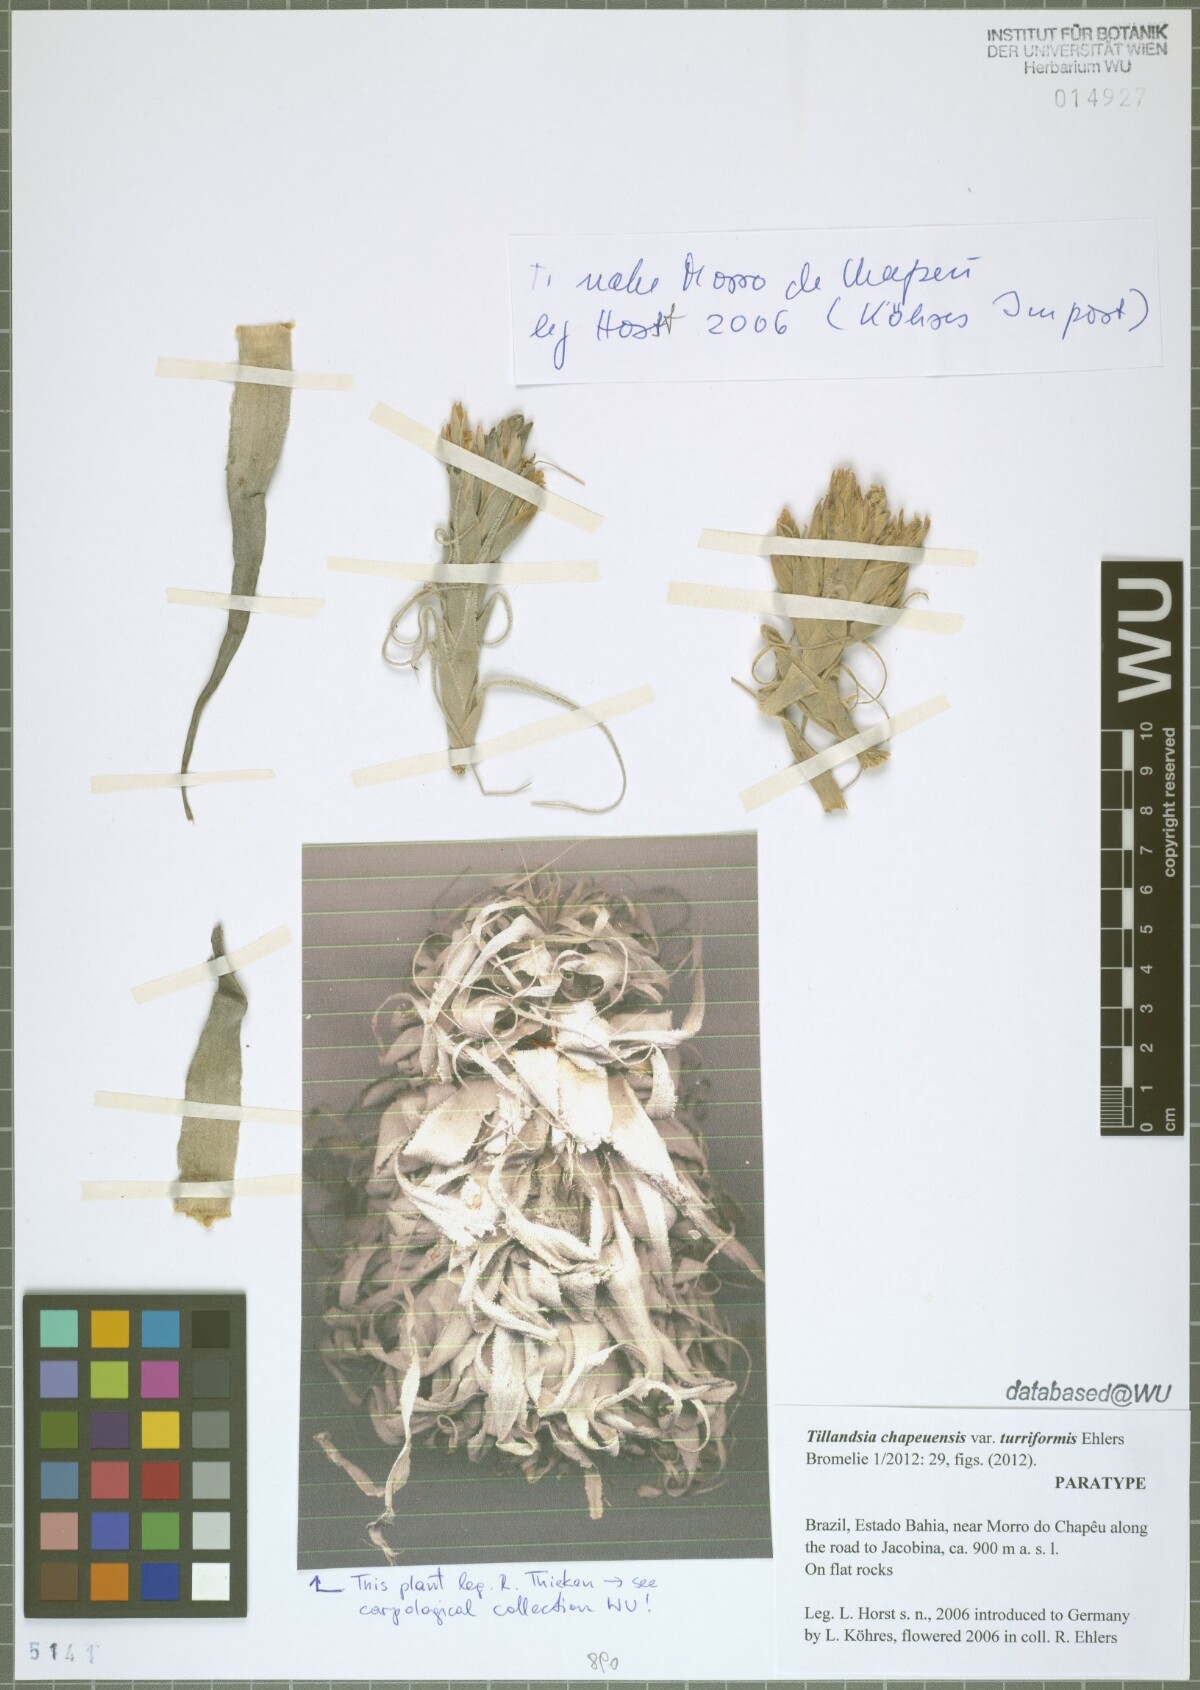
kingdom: Plantae
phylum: Tracheophyta
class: Liliopsida
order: Poales
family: Bromeliaceae
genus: Tillandsia
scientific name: Tillandsia chapeuensis
